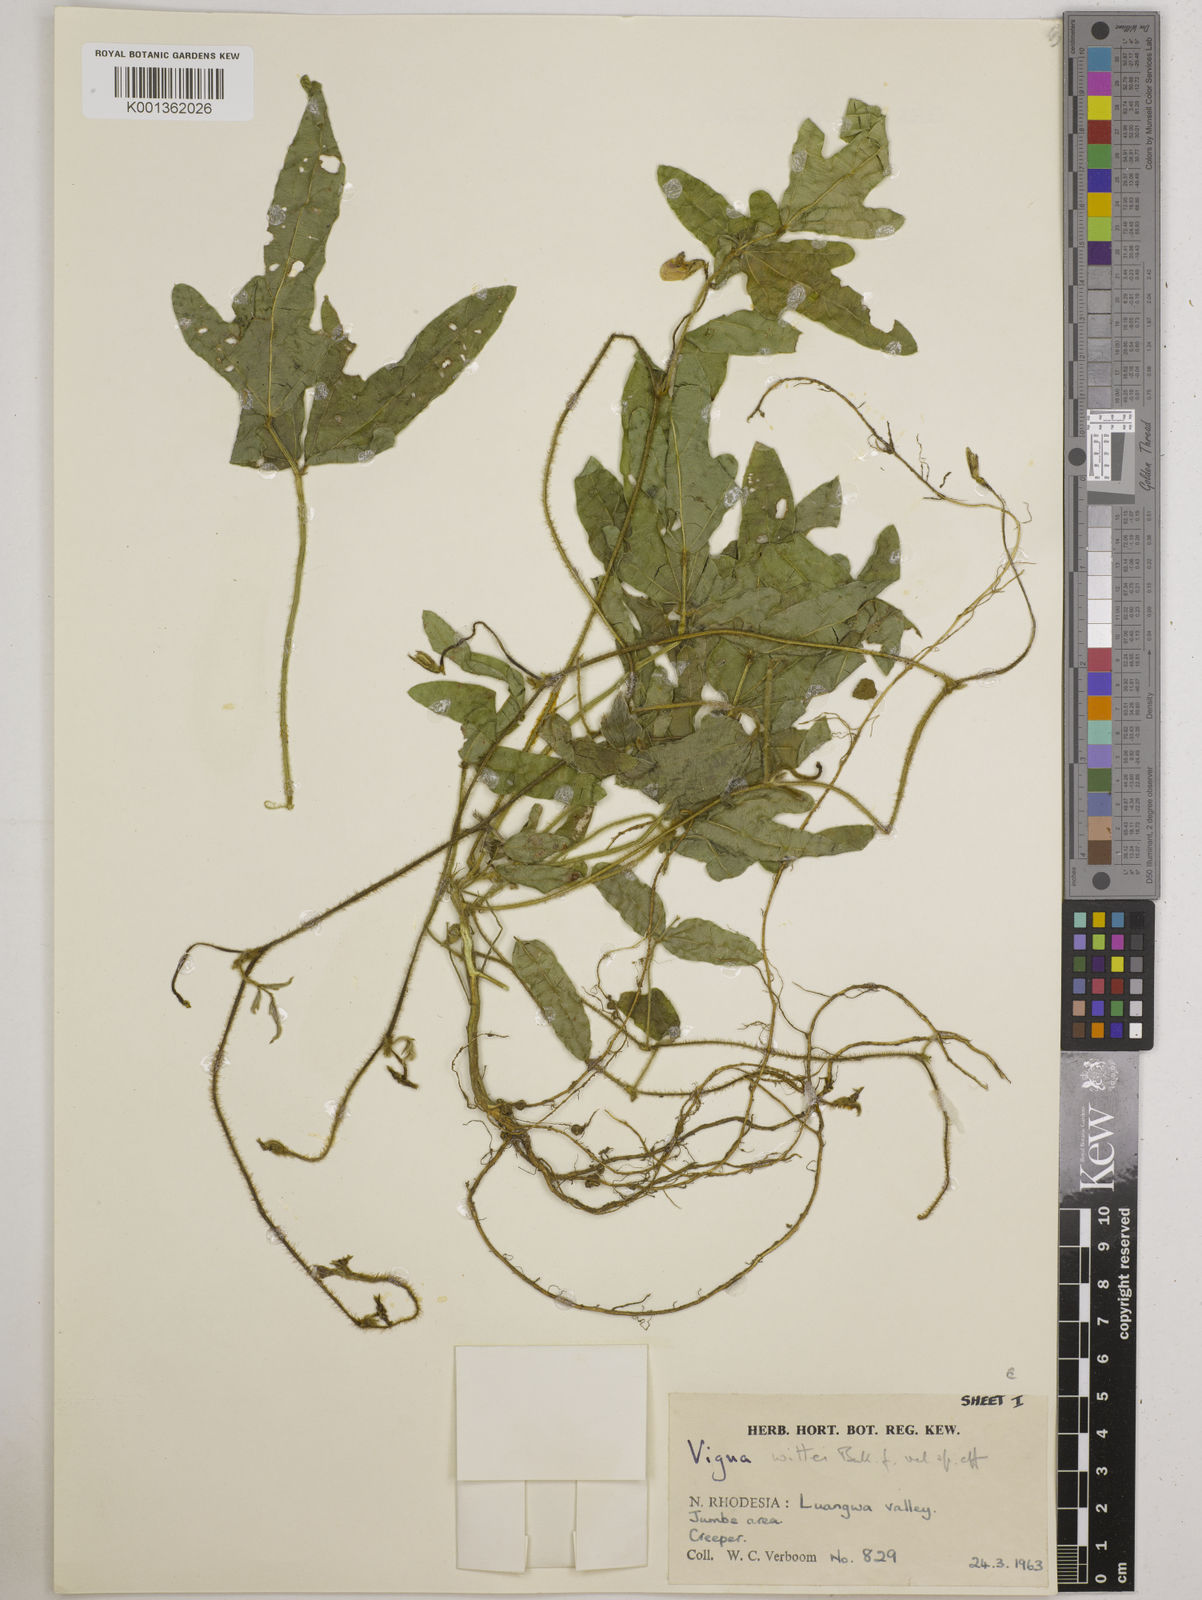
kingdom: Plantae
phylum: Tracheophyta
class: Magnoliopsida
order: Fabales
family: Fabaceae
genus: Vigna
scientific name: Vigna radicans
